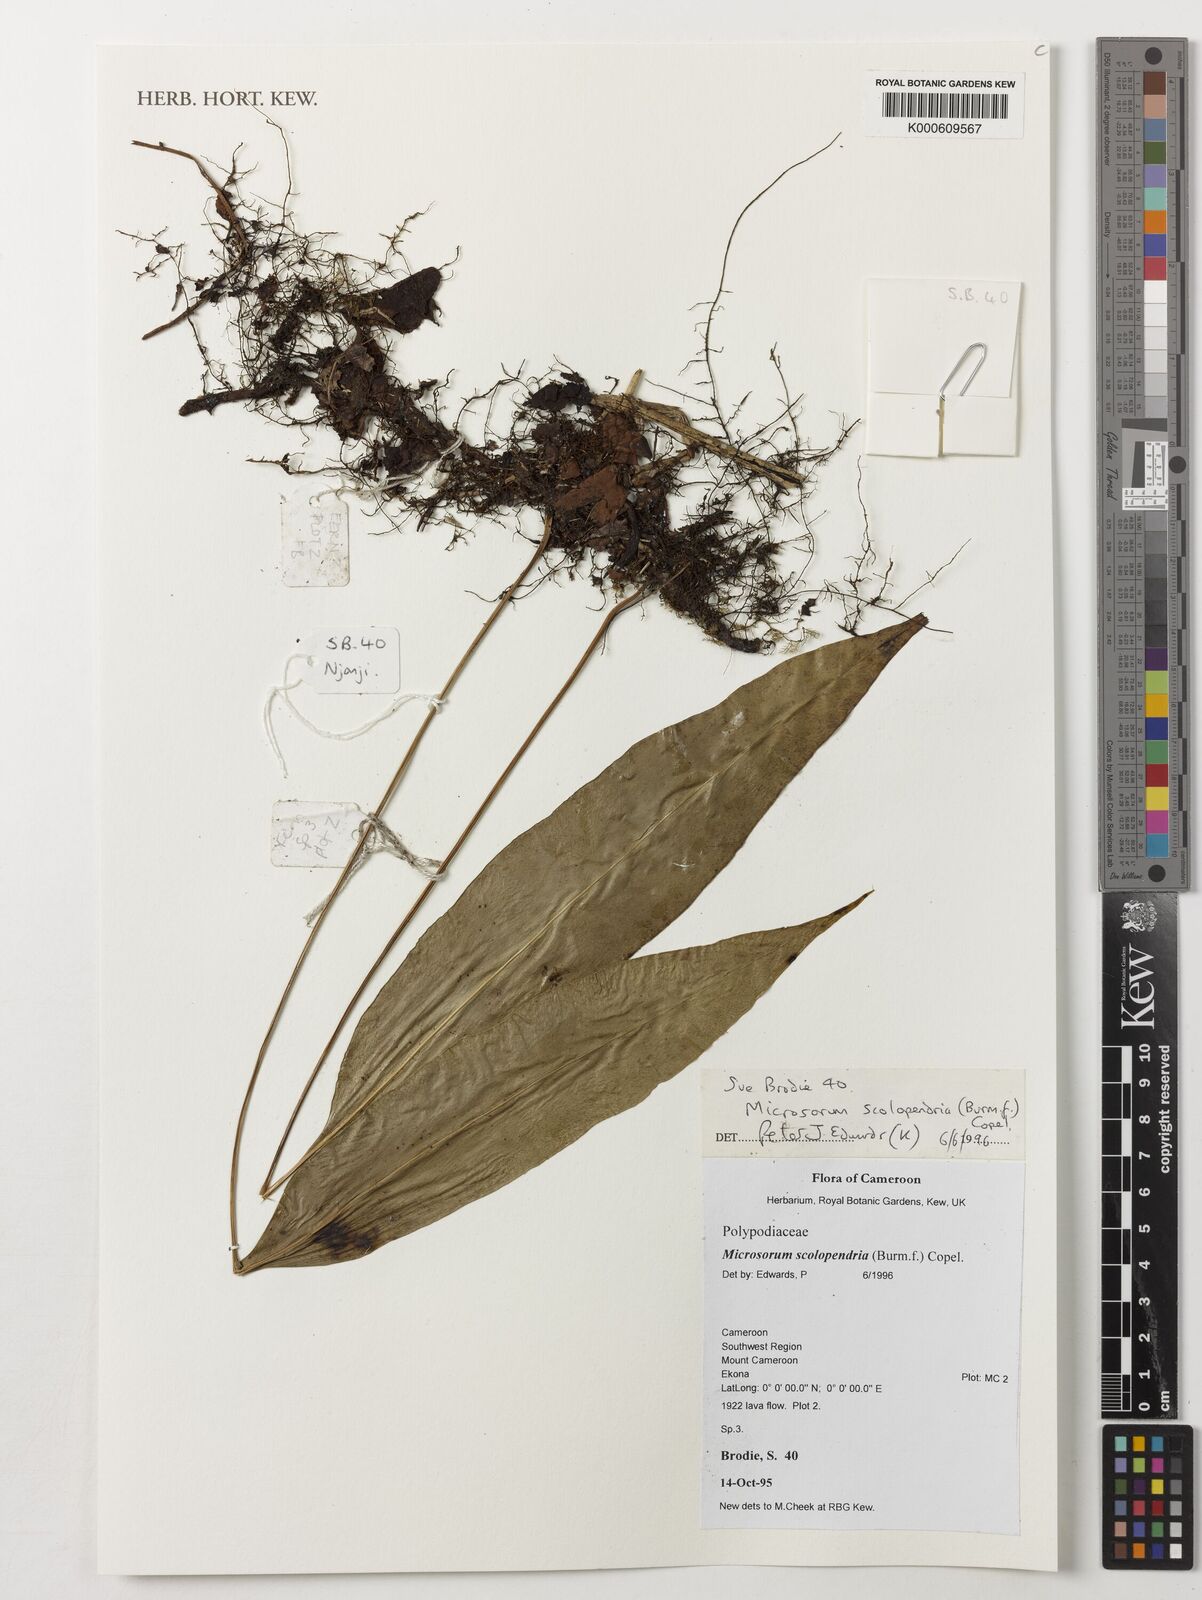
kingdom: Plantae
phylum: Tracheophyta
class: Polypodiopsida
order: Polypodiales
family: Polypodiaceae
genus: Microsorum
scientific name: Microsorum scolopendria
